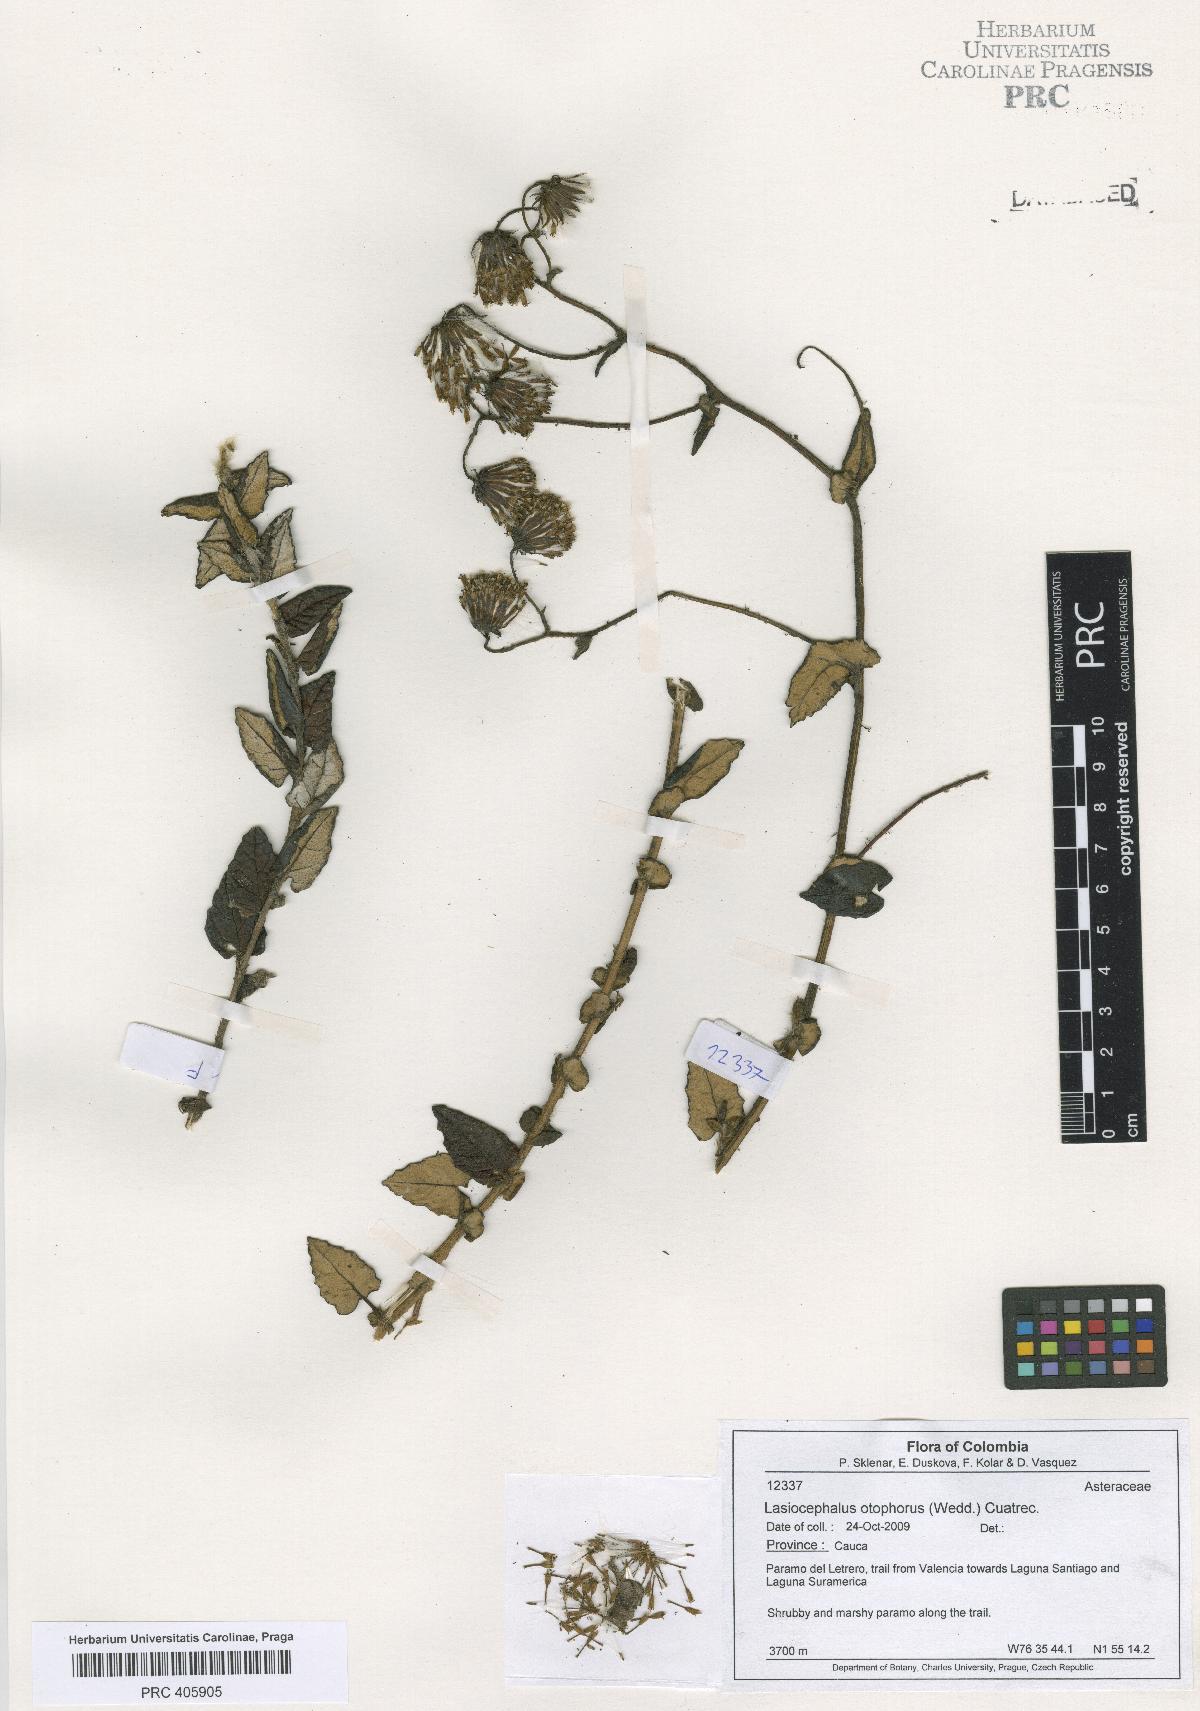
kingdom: Plantae
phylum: Tracheophyta
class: Magnoliopsida
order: Asterales
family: Asteraceae
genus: Aetheolaena
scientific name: Aetheolaena otophora
